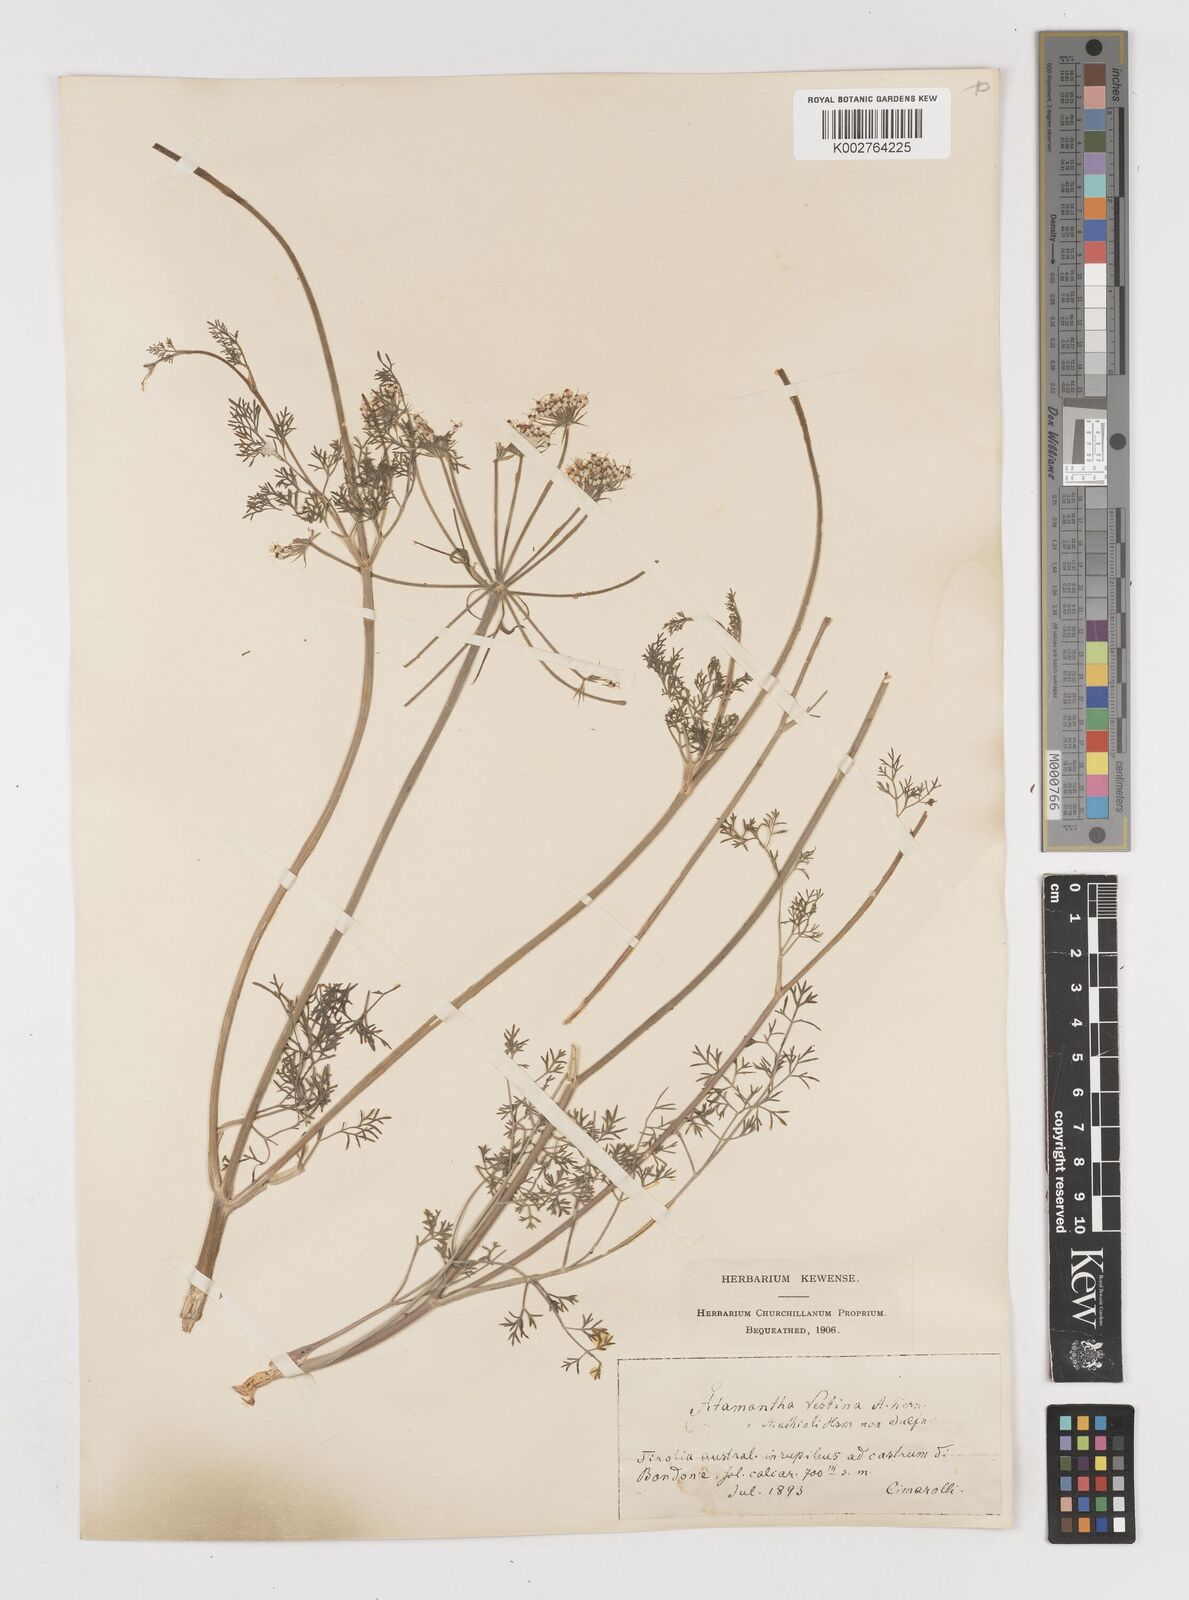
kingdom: Plantae
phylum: Tracheophyta
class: Magnoliopsida
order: Apiales
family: Apiaceae
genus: Athamanta
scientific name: Athamanta cretensis
